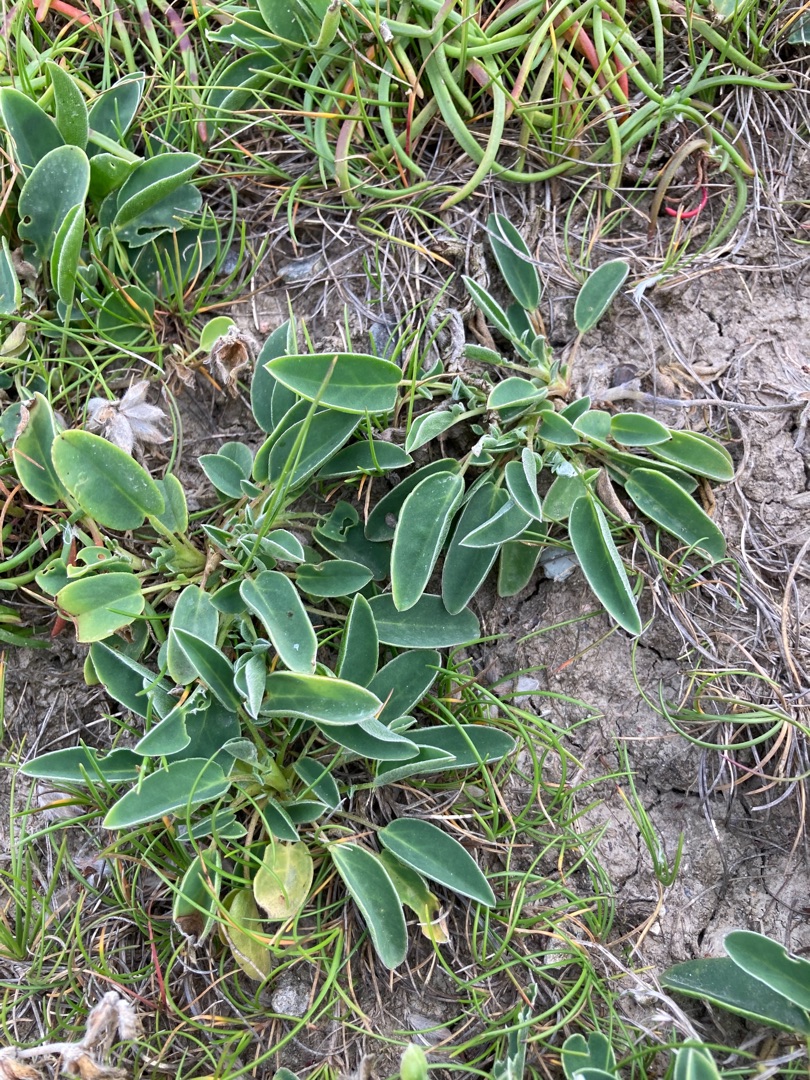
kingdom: Plantae
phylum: Tracheophyta
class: Magnoliopsida
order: Fabales
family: Fabaceae
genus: Anthyllis
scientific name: Anthyllis vulneraria
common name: Dansk rundbælg
